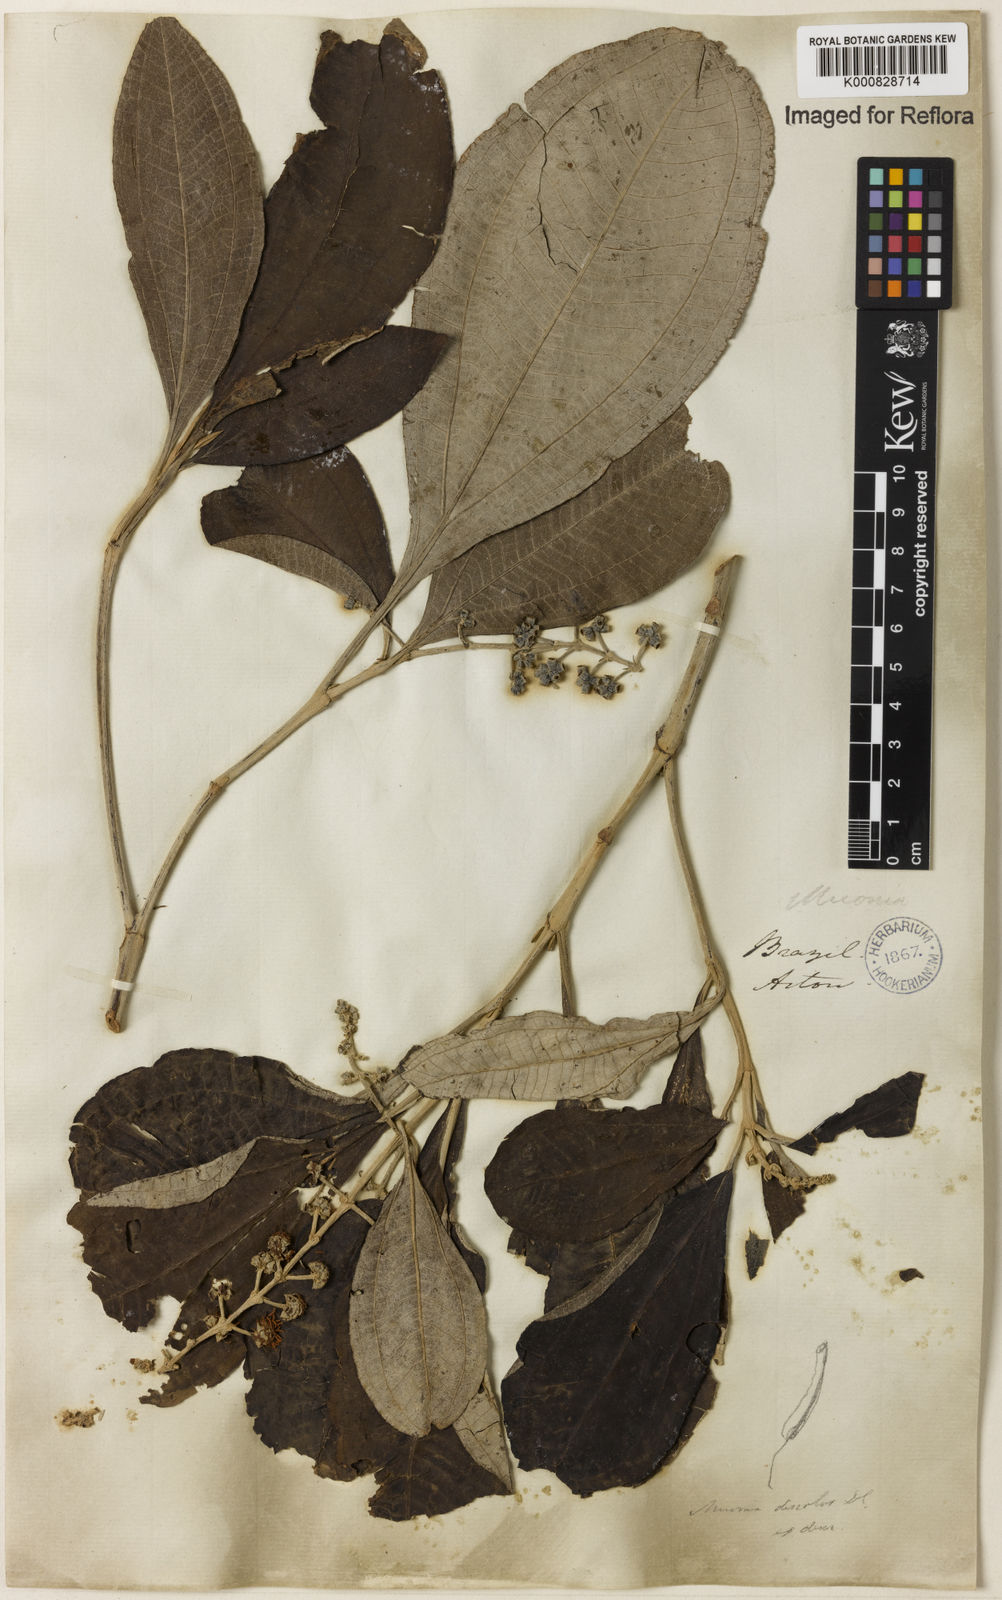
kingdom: Plantae
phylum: Tracheophyta
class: Magnoliopsida
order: Myrtales
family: Melastomataceae
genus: Miconia
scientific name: Miconia discolor
